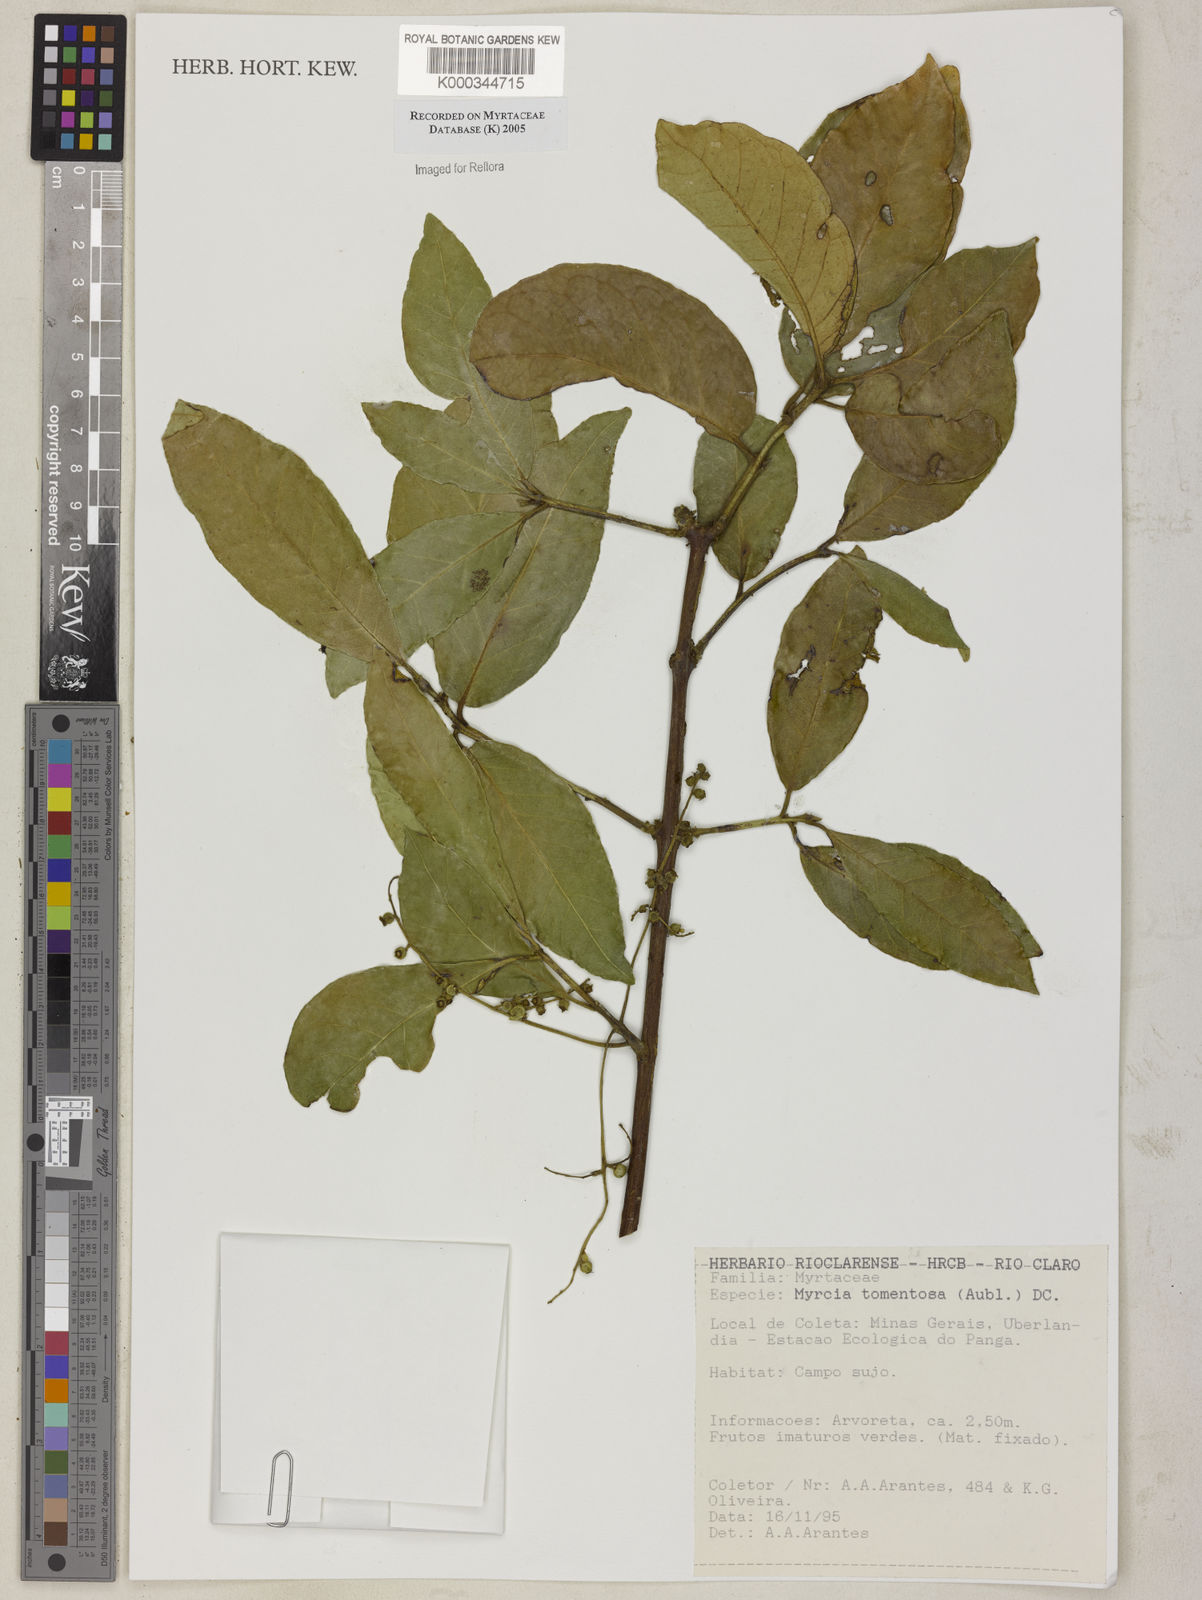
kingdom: Plantae
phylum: Tracheophyta
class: Magnoliopsida
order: Myrtales
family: Myrtaceae
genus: Myrcia
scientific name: Myrcia tomentosa
